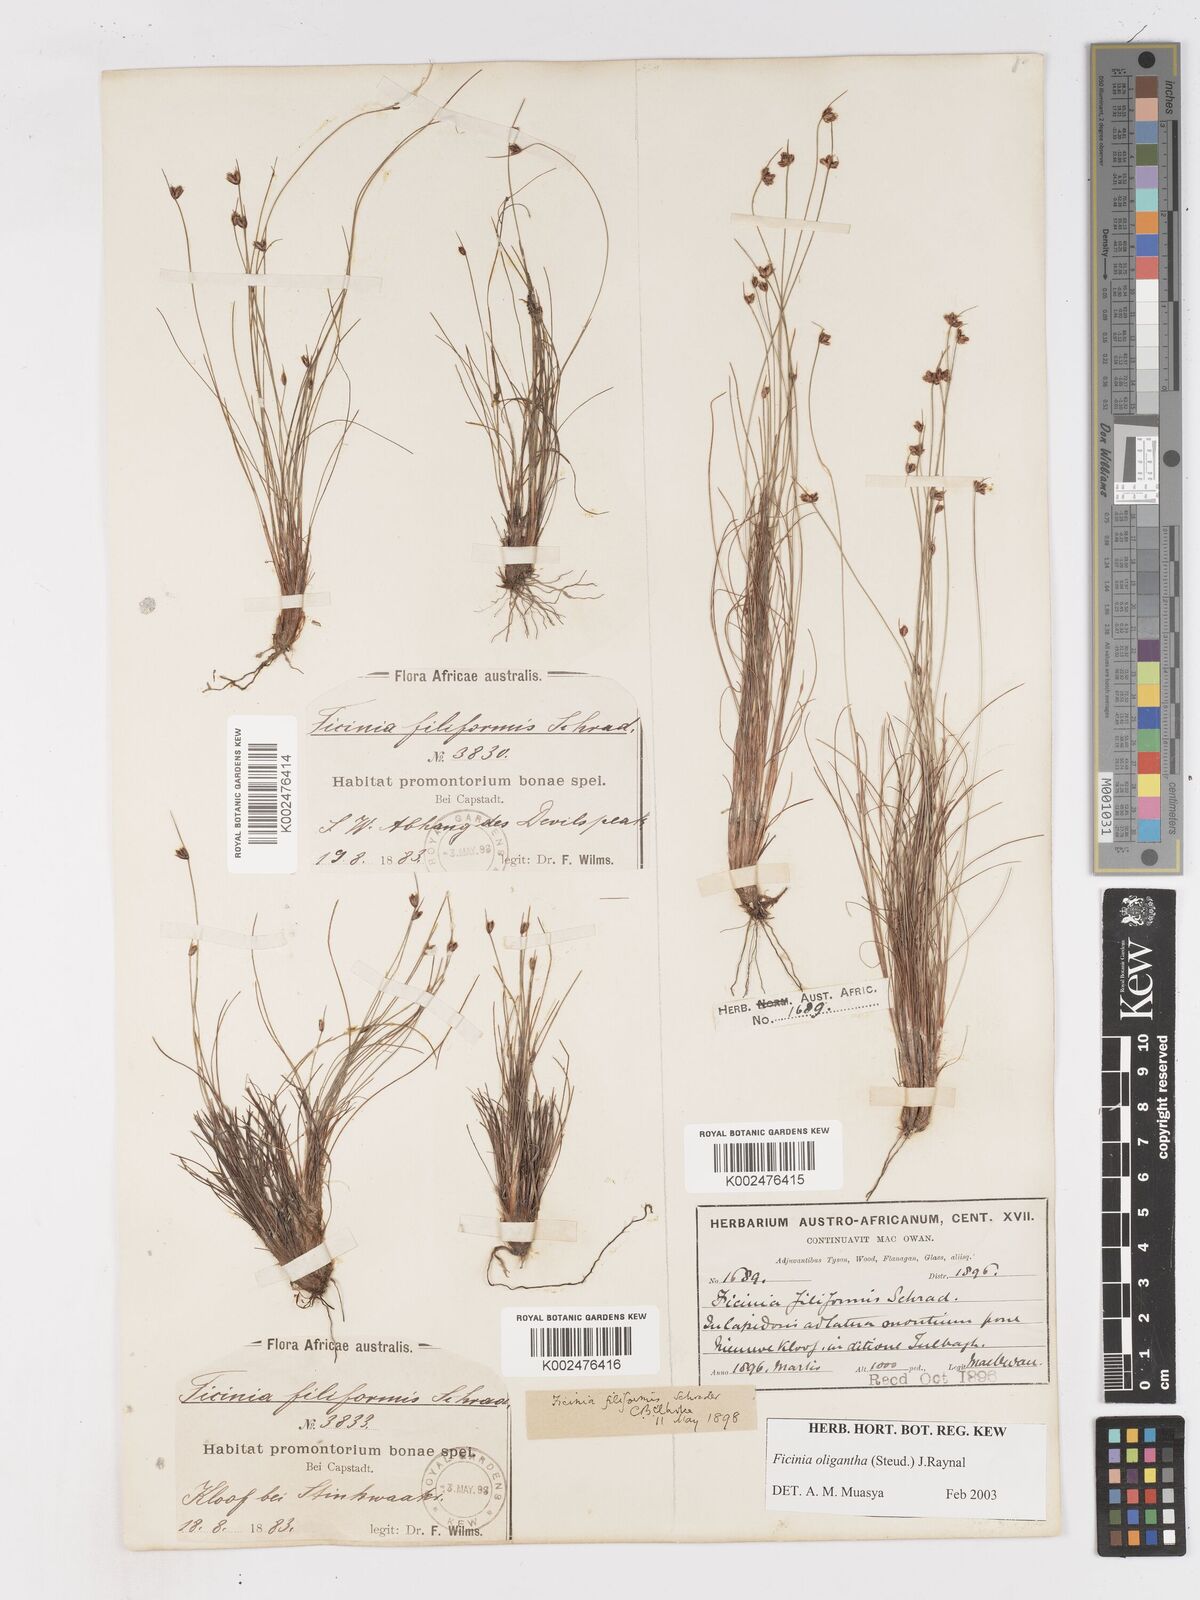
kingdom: Plantae
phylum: Tracheophyta
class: Liliopsida
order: Poales
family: Cyperaceae
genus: Ficinia
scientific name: Ficinia
